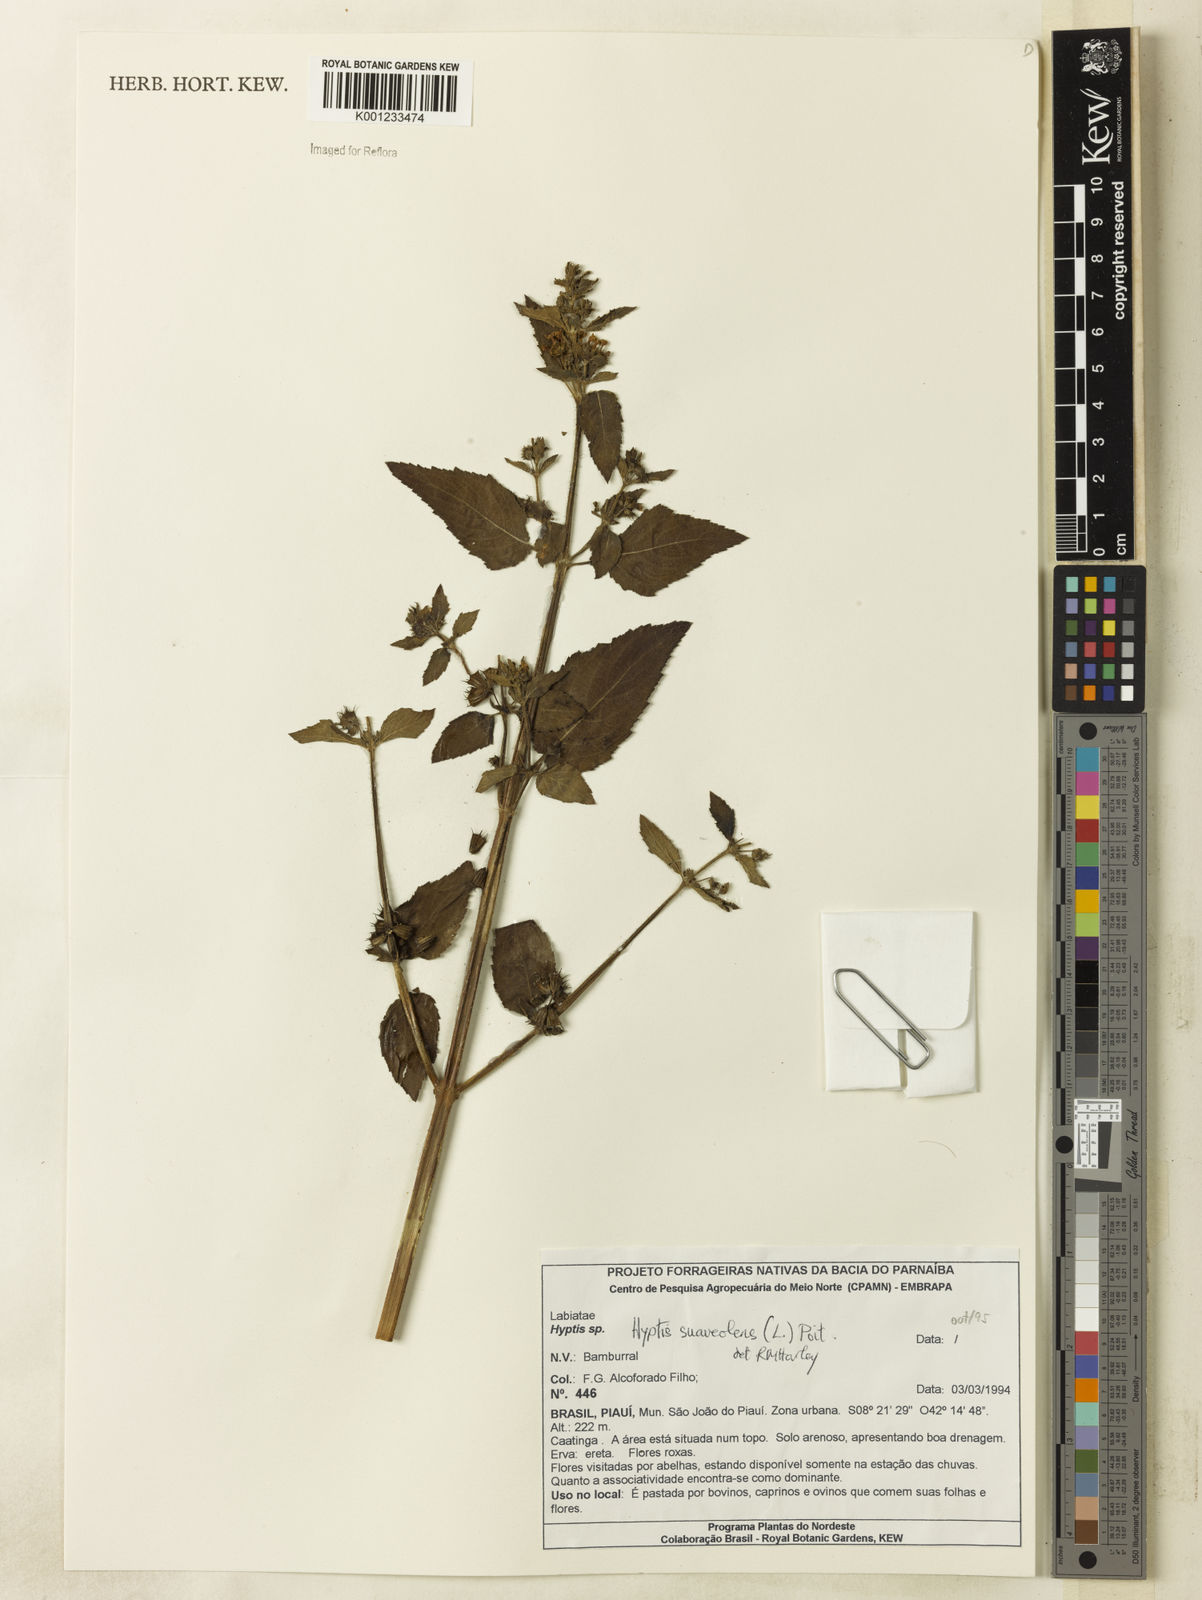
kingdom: Plantae
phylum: Tracheophyta
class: Magnoliopsida
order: Lamiales
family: Lamiaceae
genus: Mesosphaerum
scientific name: Mesosphaerum suaveolens
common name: Pignut
